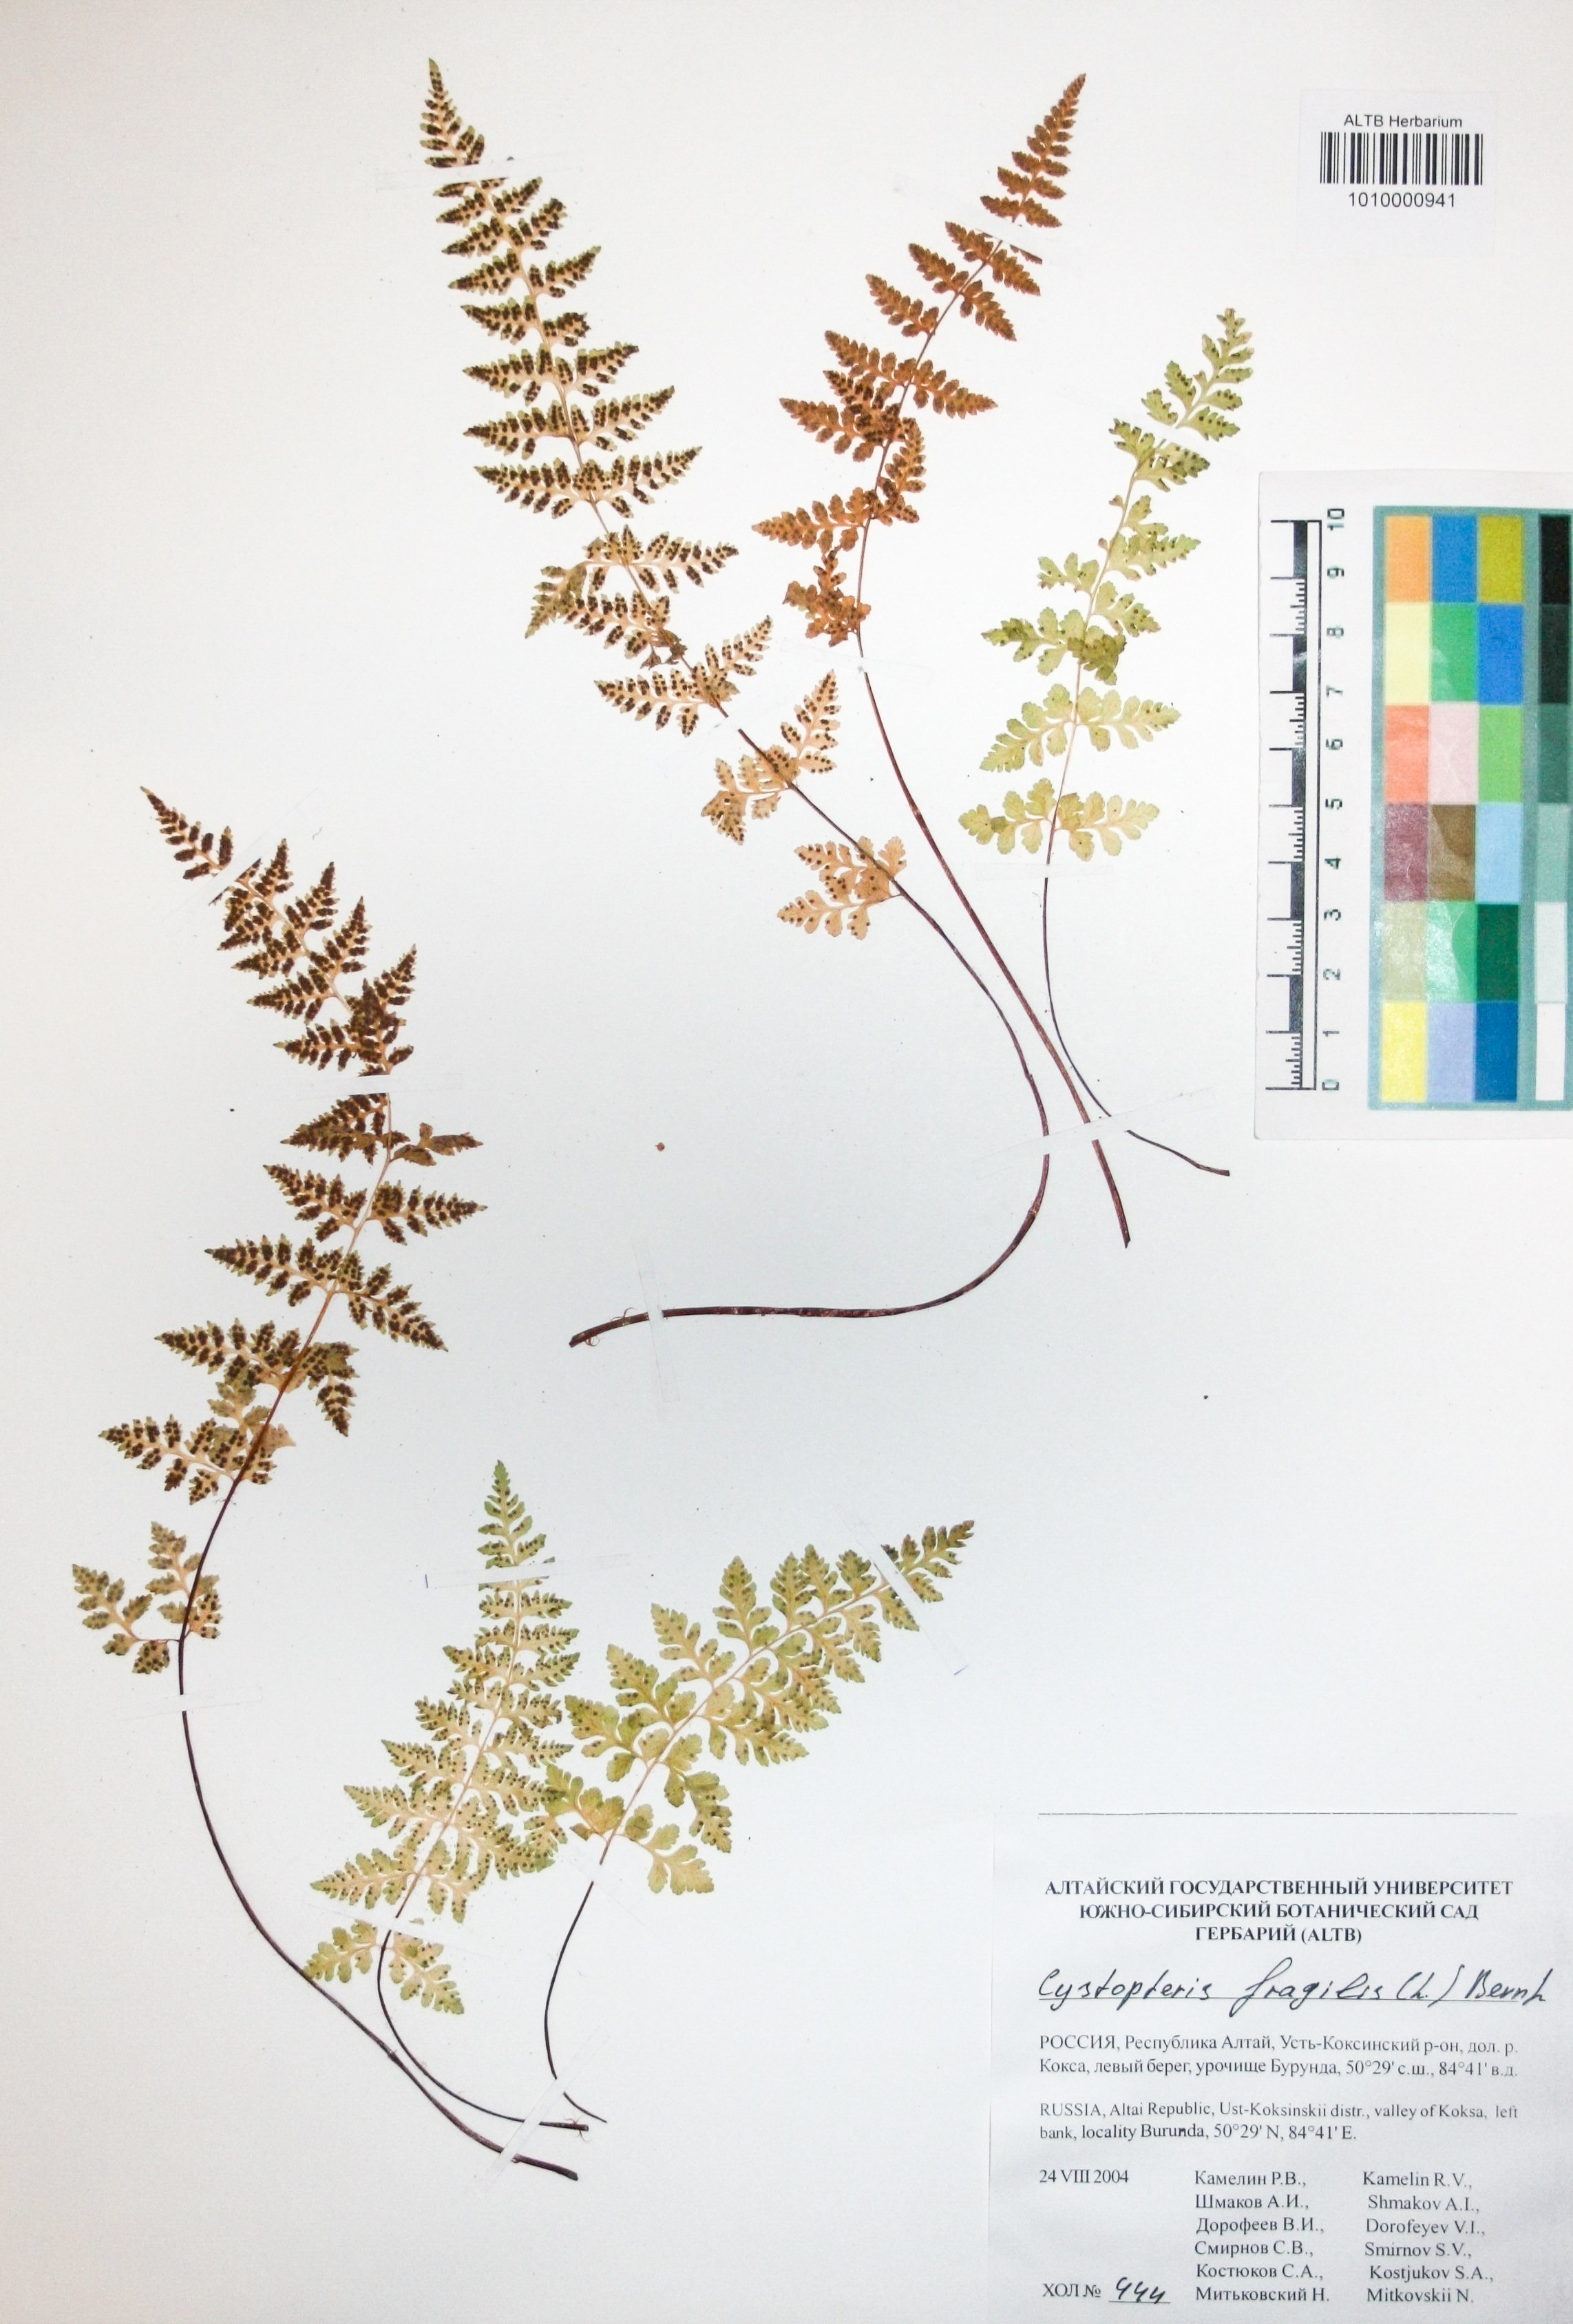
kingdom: Plantae
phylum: Tracheophyta
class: Polypodiopsida
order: Polypodiales
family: Cystopteridaceae
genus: Cystopteris
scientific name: Cystopteris fragilis
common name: Brittle bladder fern
